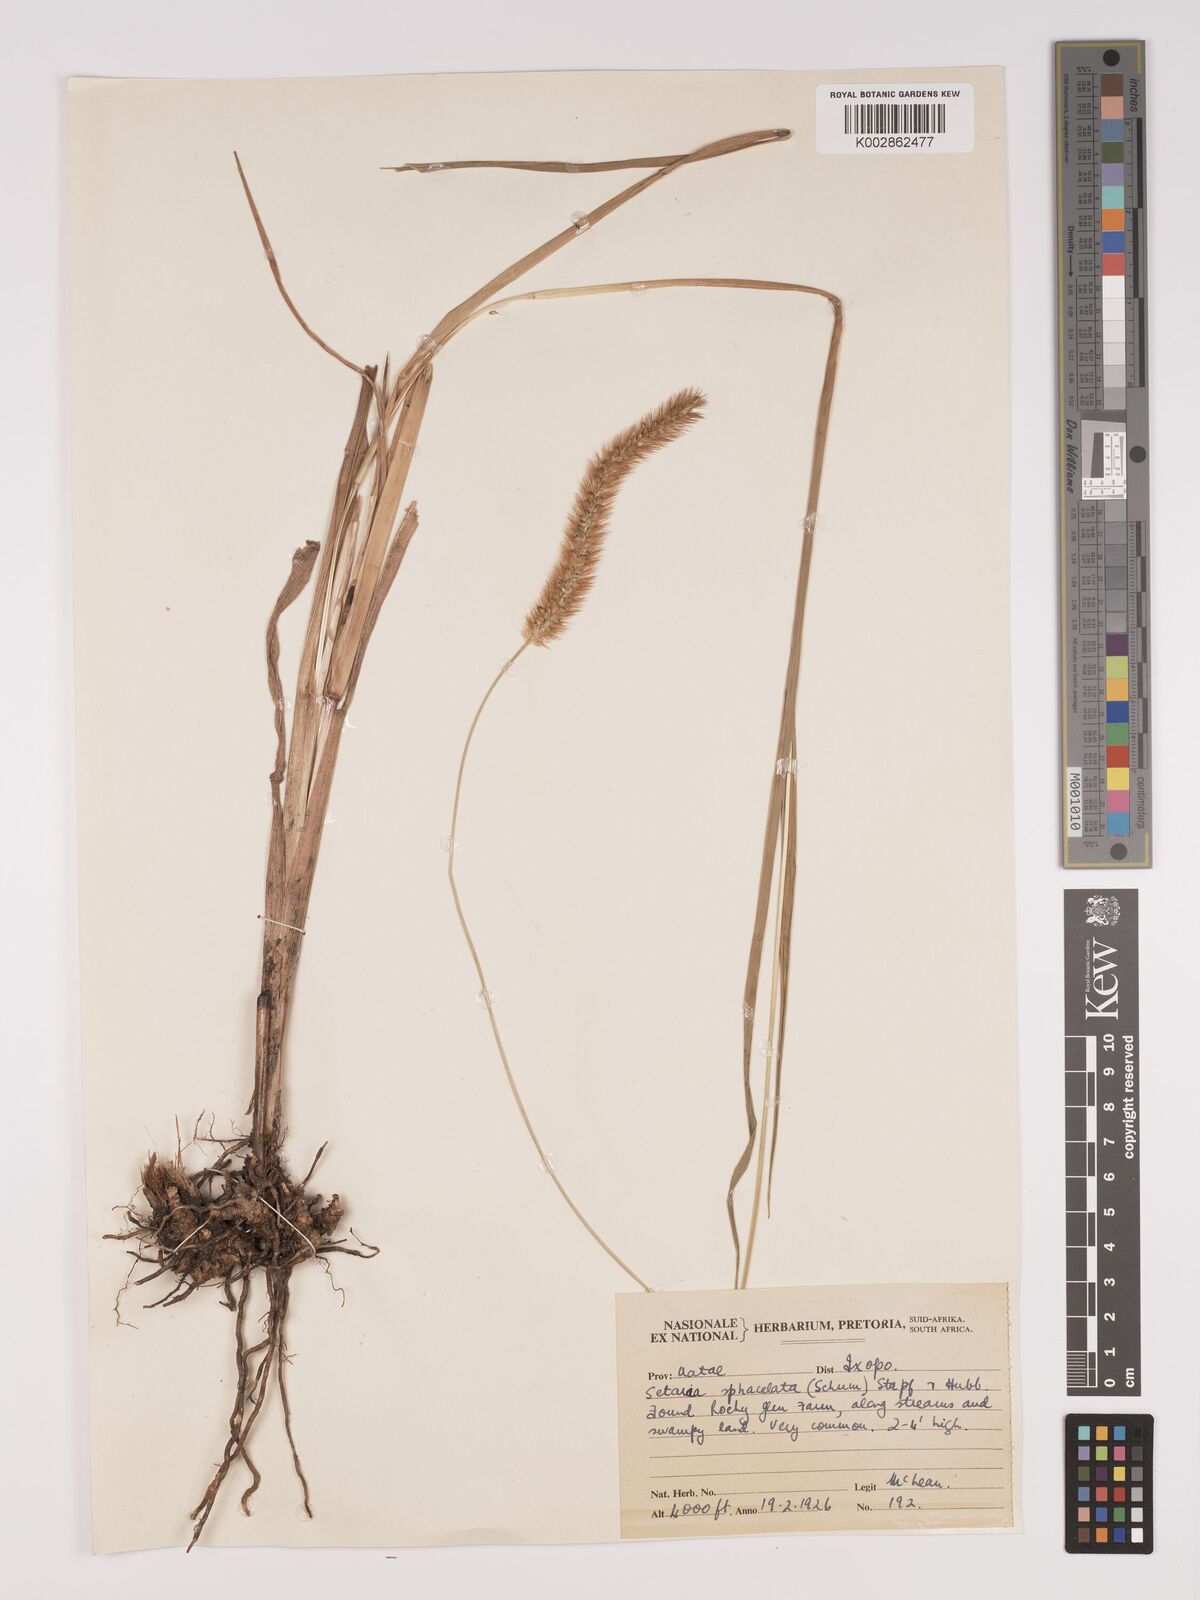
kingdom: Plantae
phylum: Tracheophyta
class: Liliopsida
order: Poales
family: Poaceae
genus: Setaria
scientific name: Setaria sphacelata
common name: African bristlegrass
